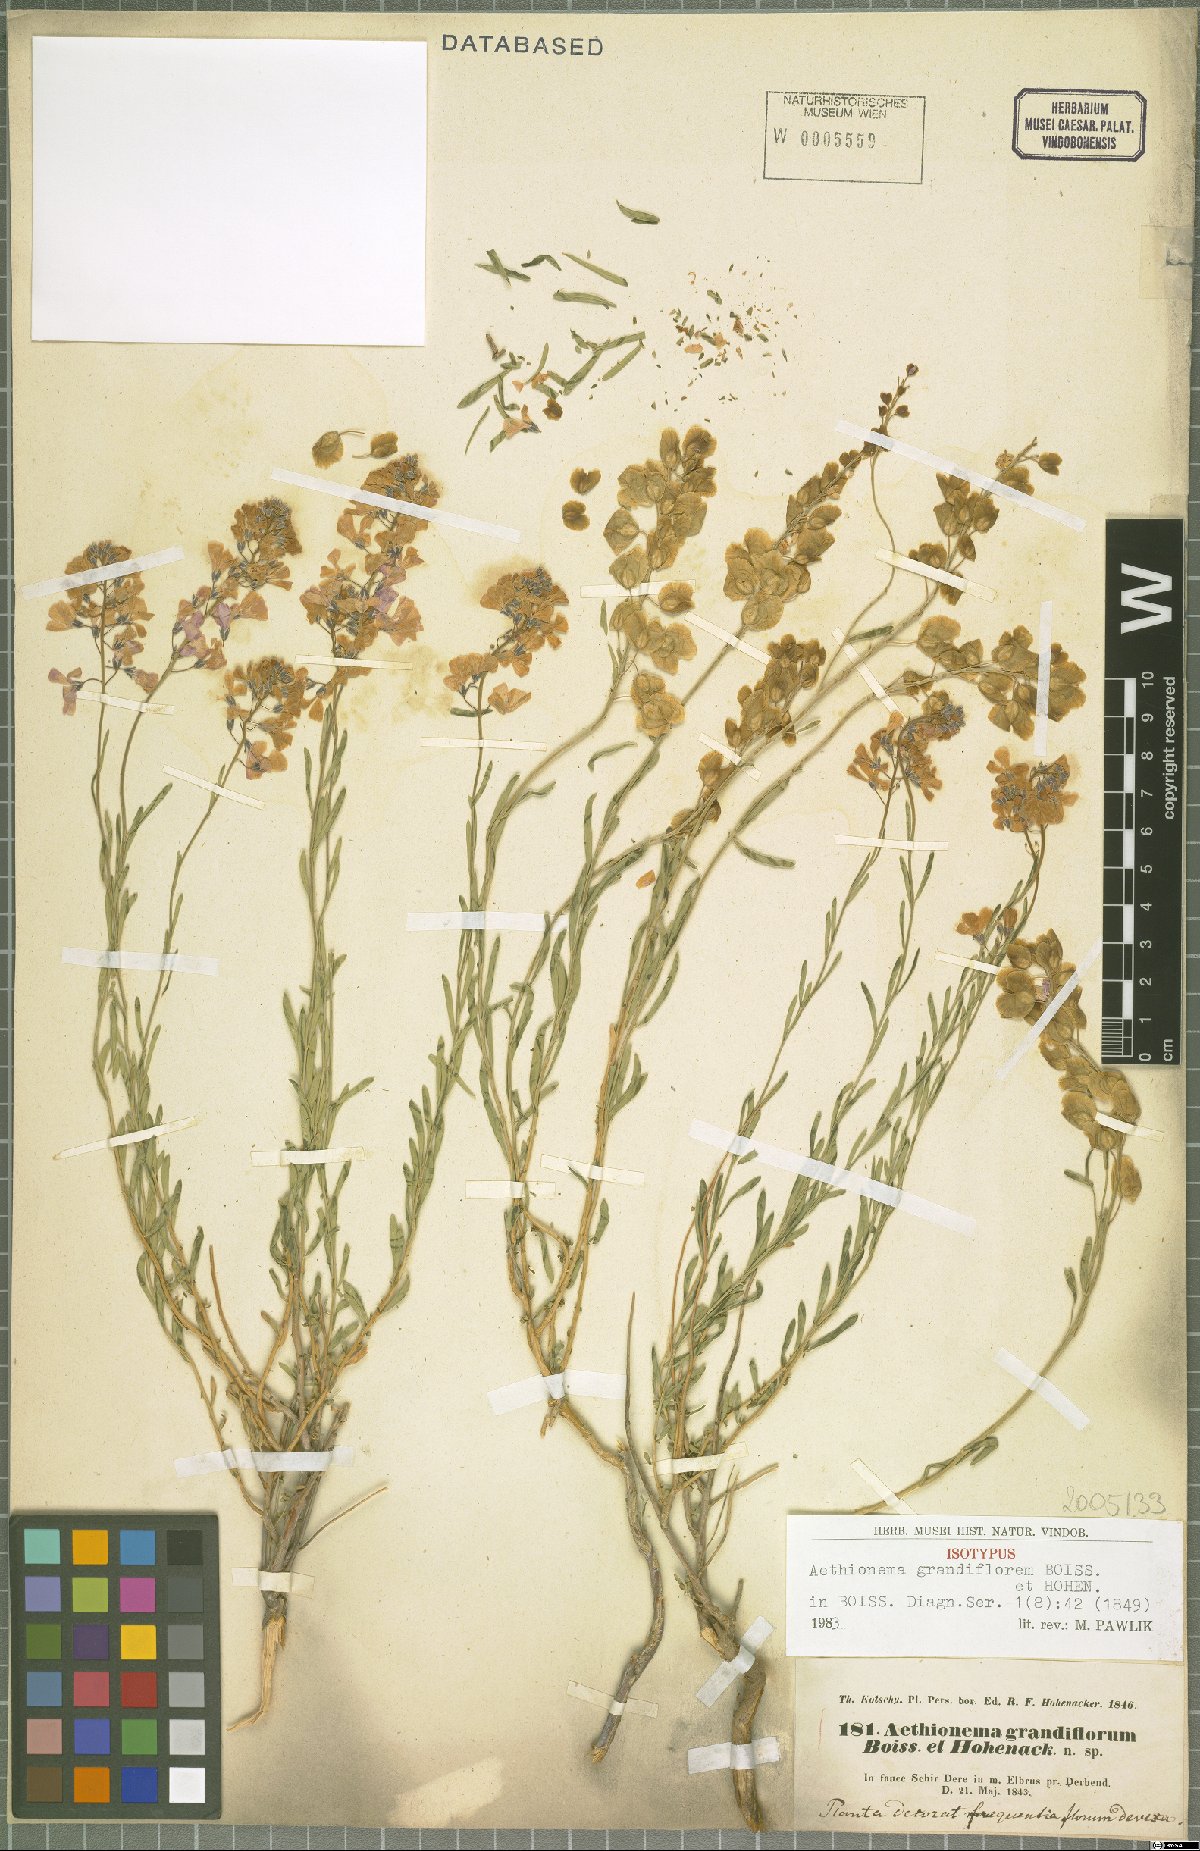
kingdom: Plantae
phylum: Tracheophyta
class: Magnoliopsida
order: Brassicales
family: Brassicaceae
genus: Aethionema
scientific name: Aethionema grandiflorum
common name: Persian stonecress
